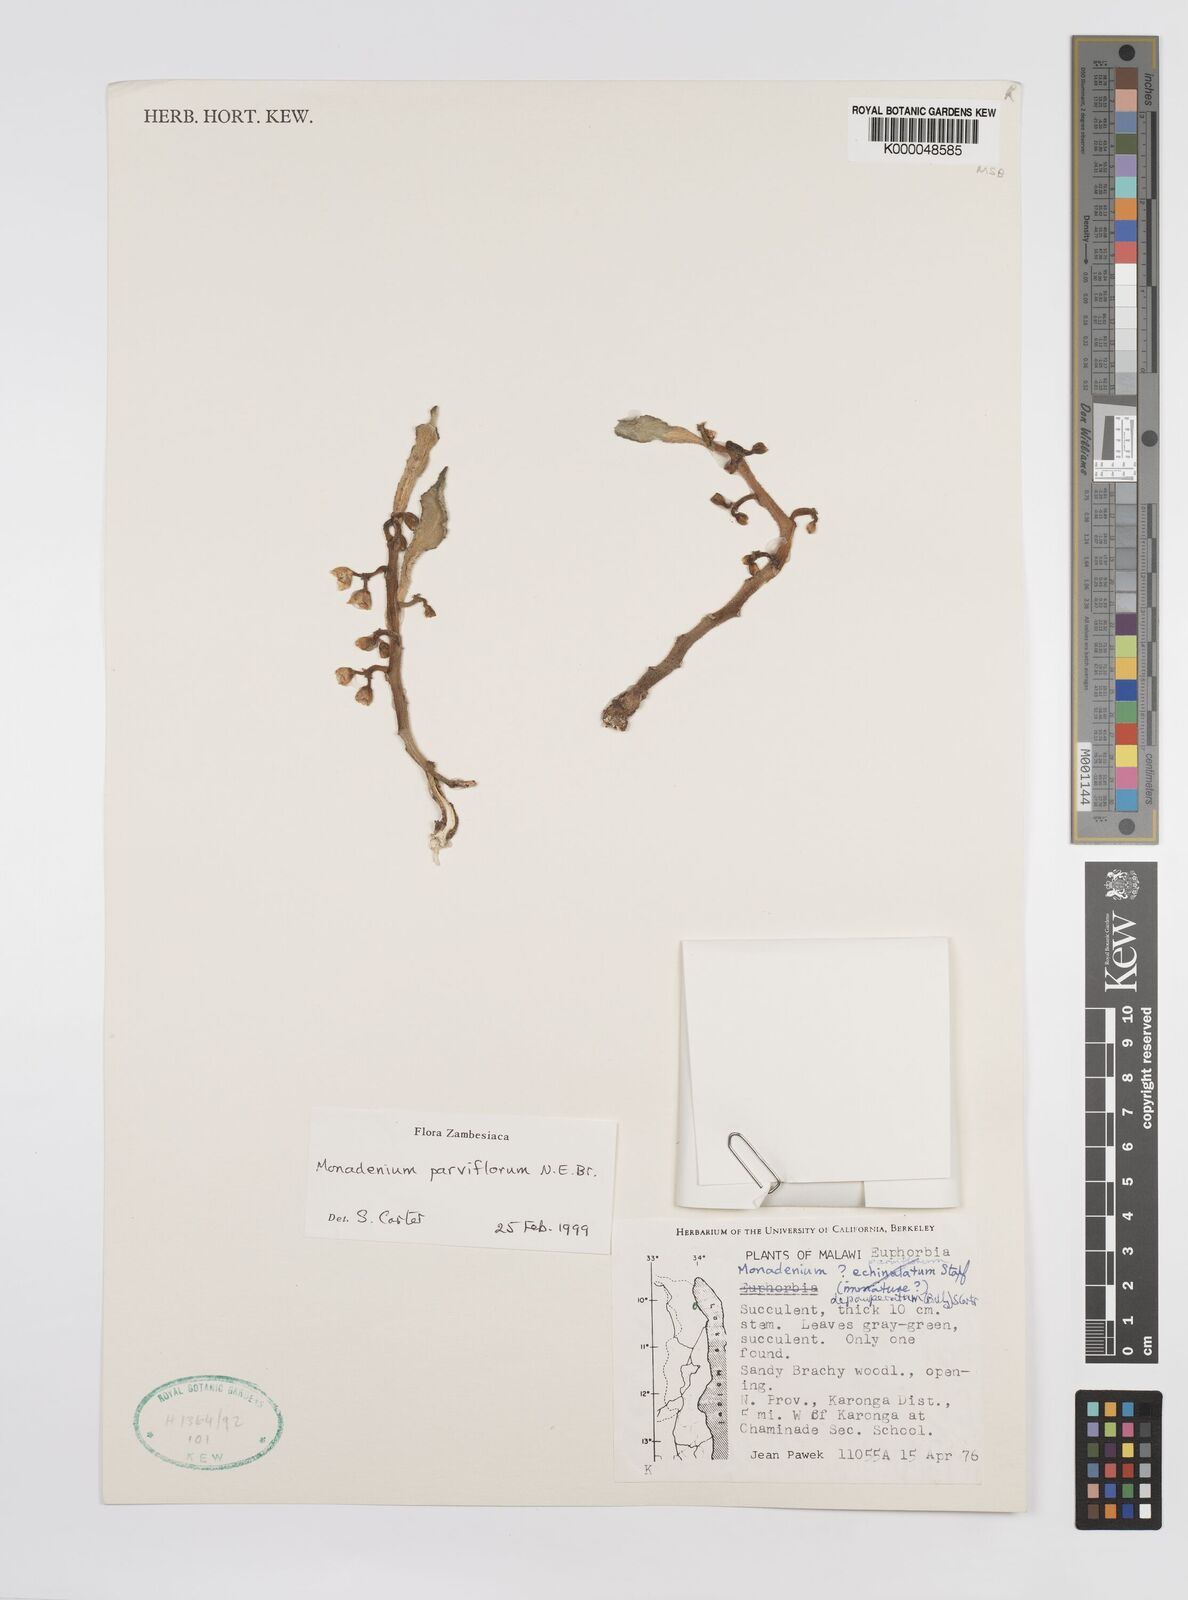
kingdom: Plantae
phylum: Tracheophyta
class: Magnoliopsida
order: Malpighiales
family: Euphorbiaceae
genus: Euphorbia
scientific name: Euphorbia neoparviflora
